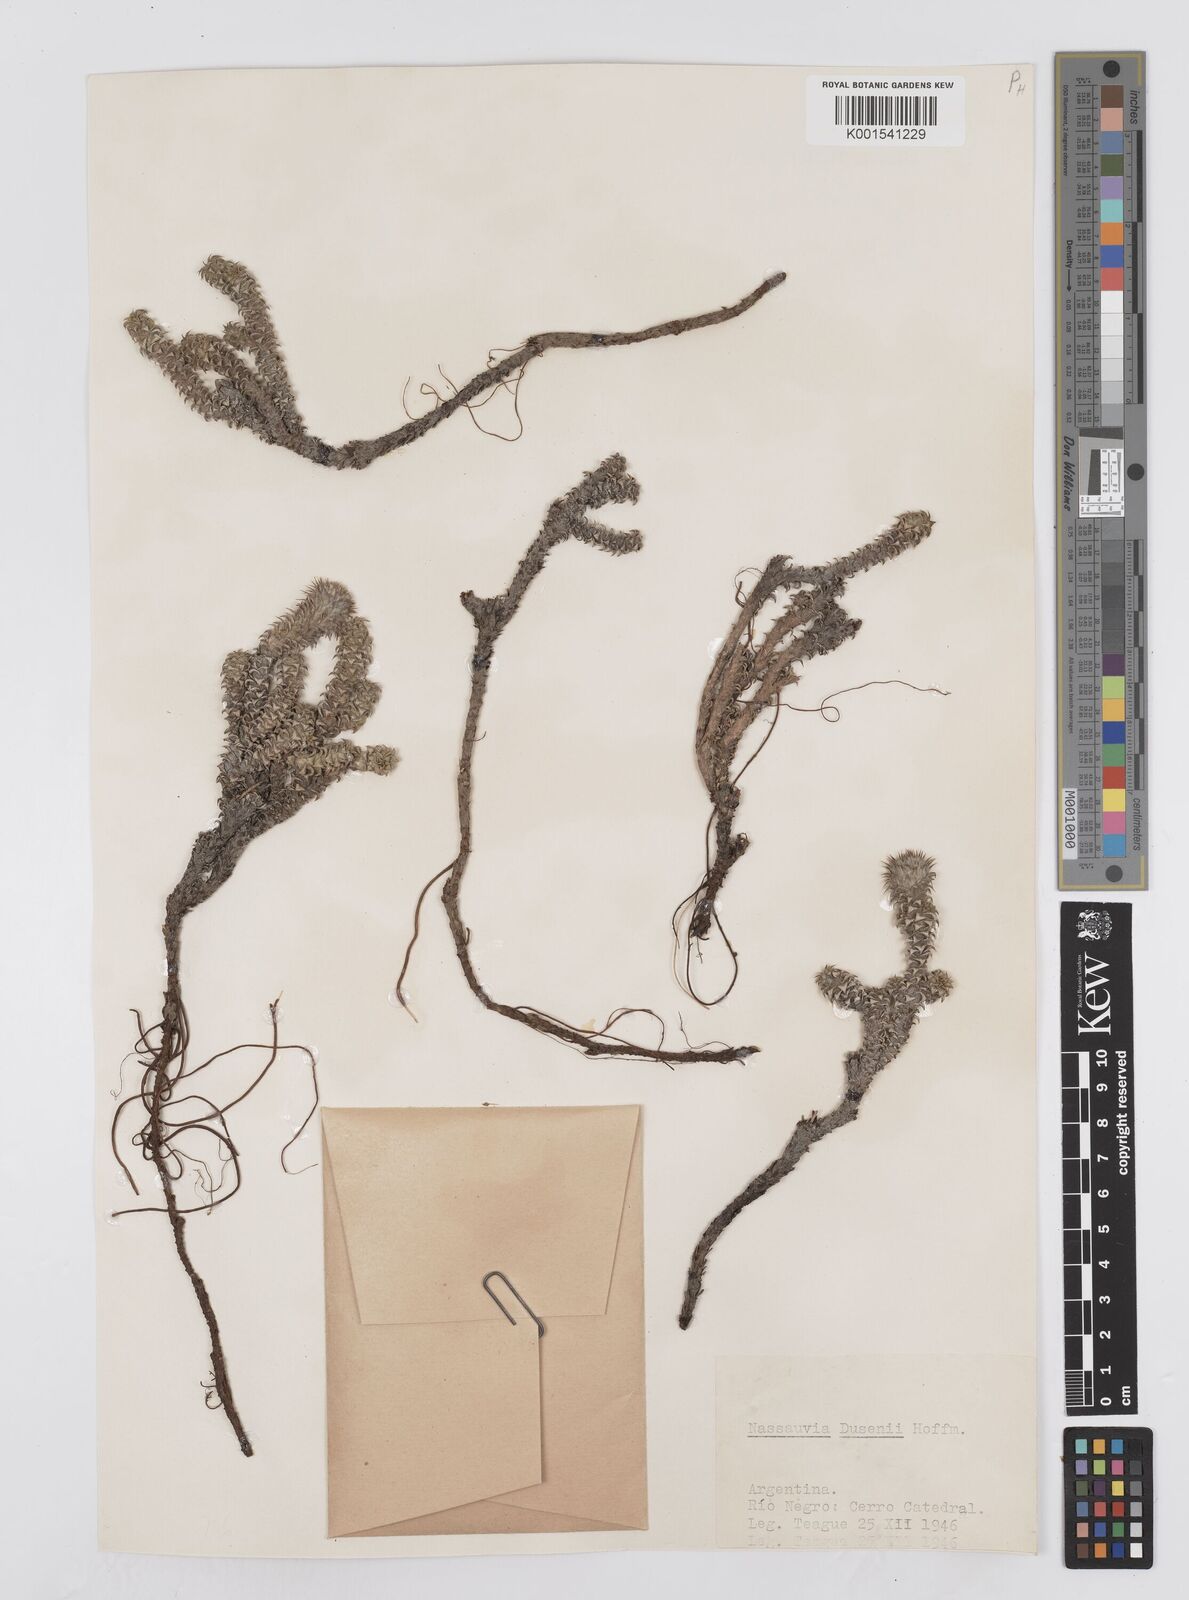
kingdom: Plantae
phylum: Tracheophyta
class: Magnoliopsida
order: Asterales
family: Asteraceae
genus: Nassauvia
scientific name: Nassauvia dusenii
